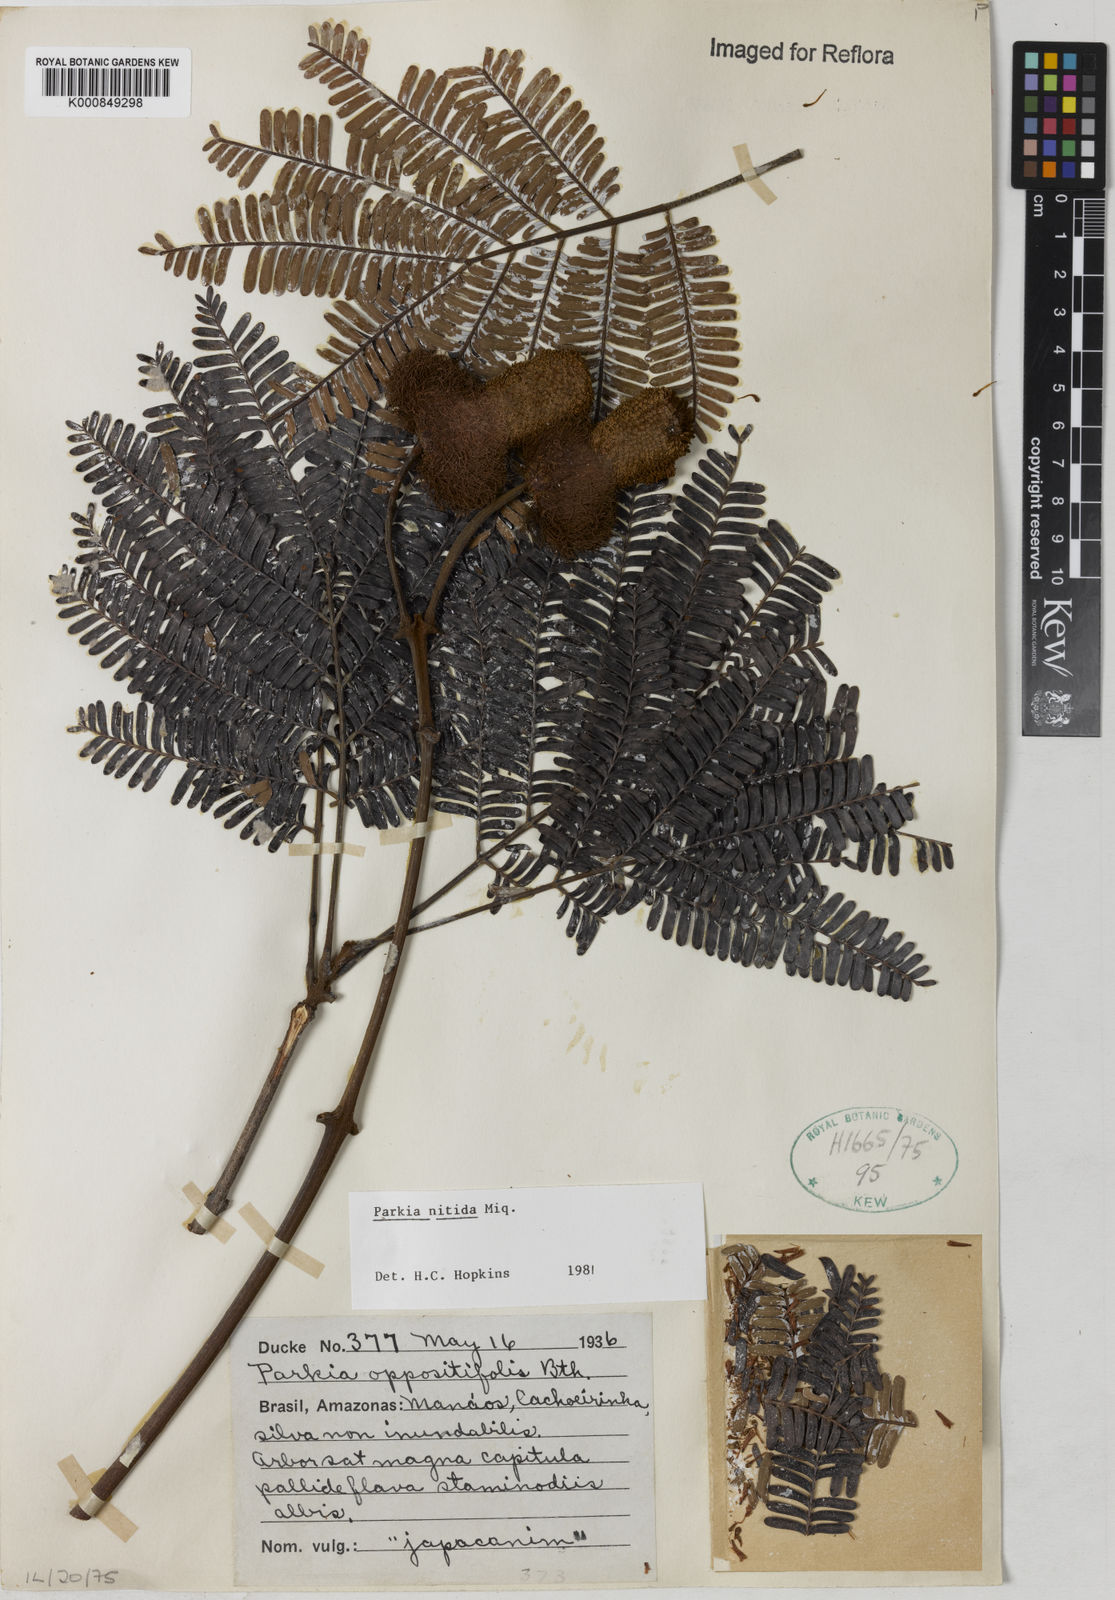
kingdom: Plantae
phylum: Tracheophyta
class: Magnoliopsida
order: Fabales
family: Fabaceae
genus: Parkia
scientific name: Parkia nitida
